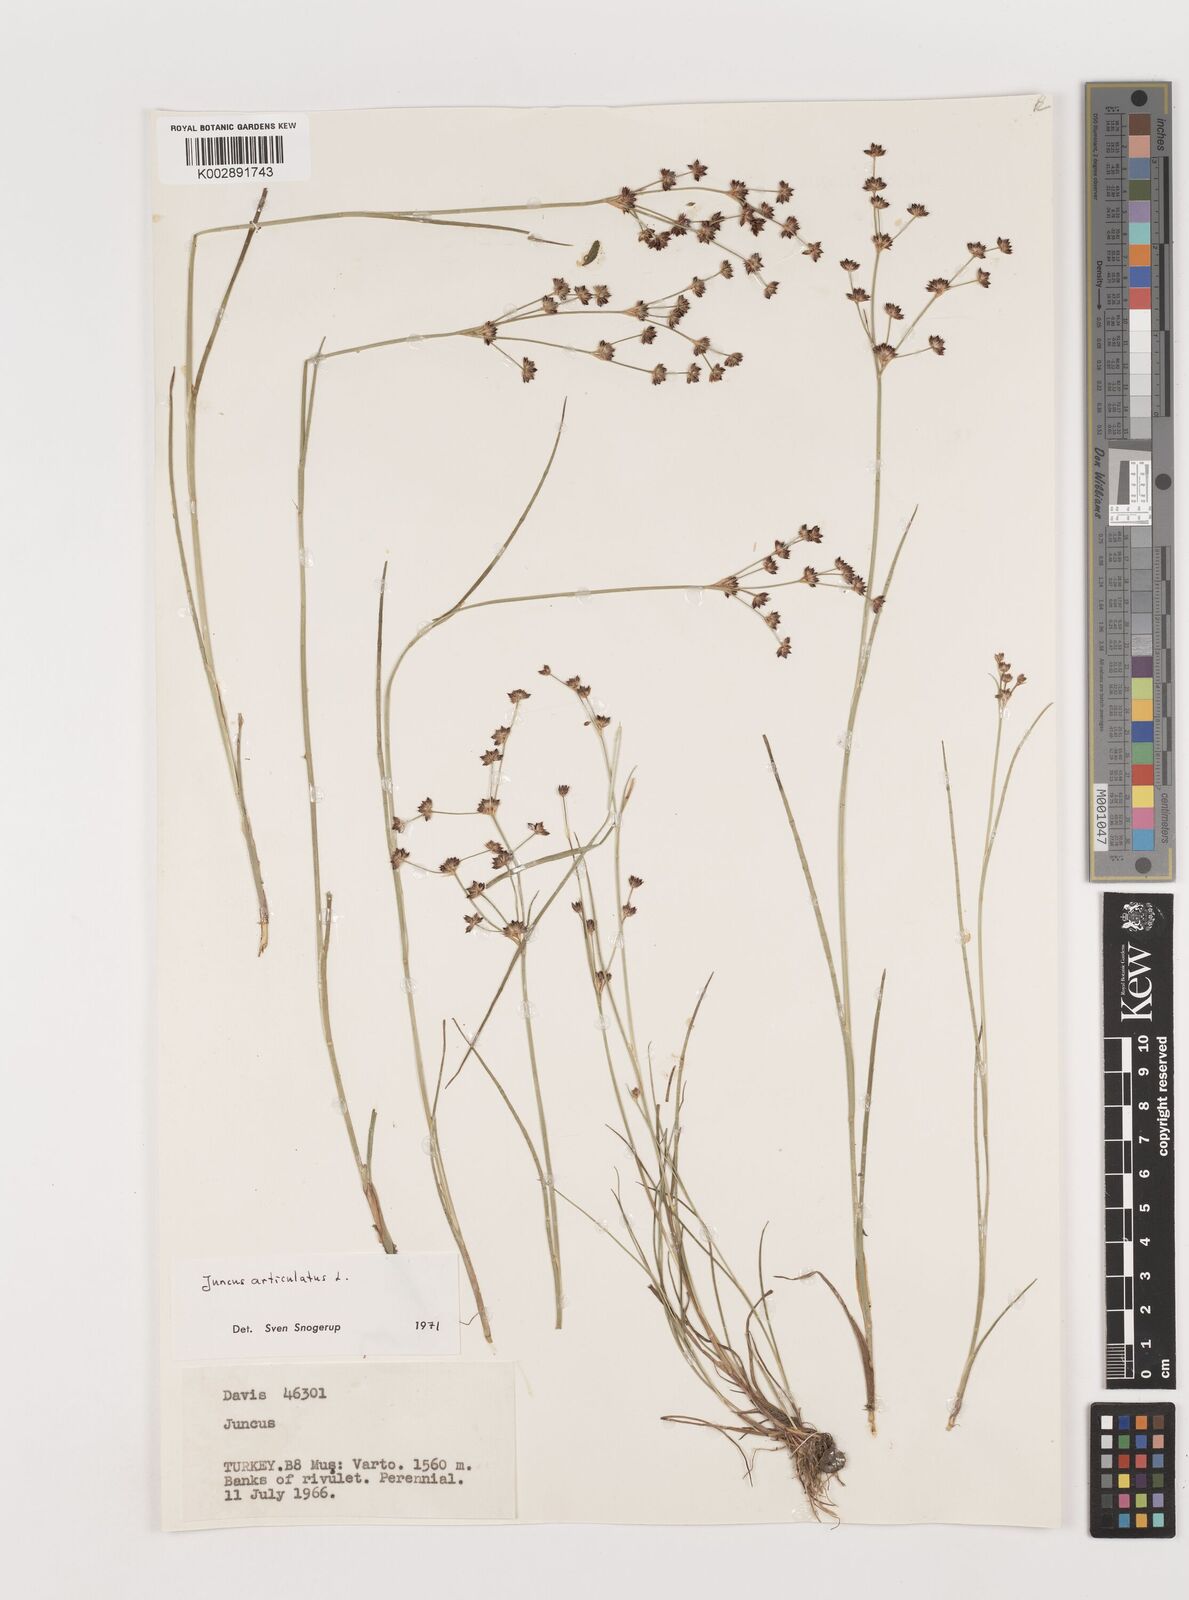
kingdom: Plantae
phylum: Tracheophyta
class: Liliopsida
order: Poales
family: Juncaceae
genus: Juncus
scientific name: Juncus articulatus
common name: Jointed rush
